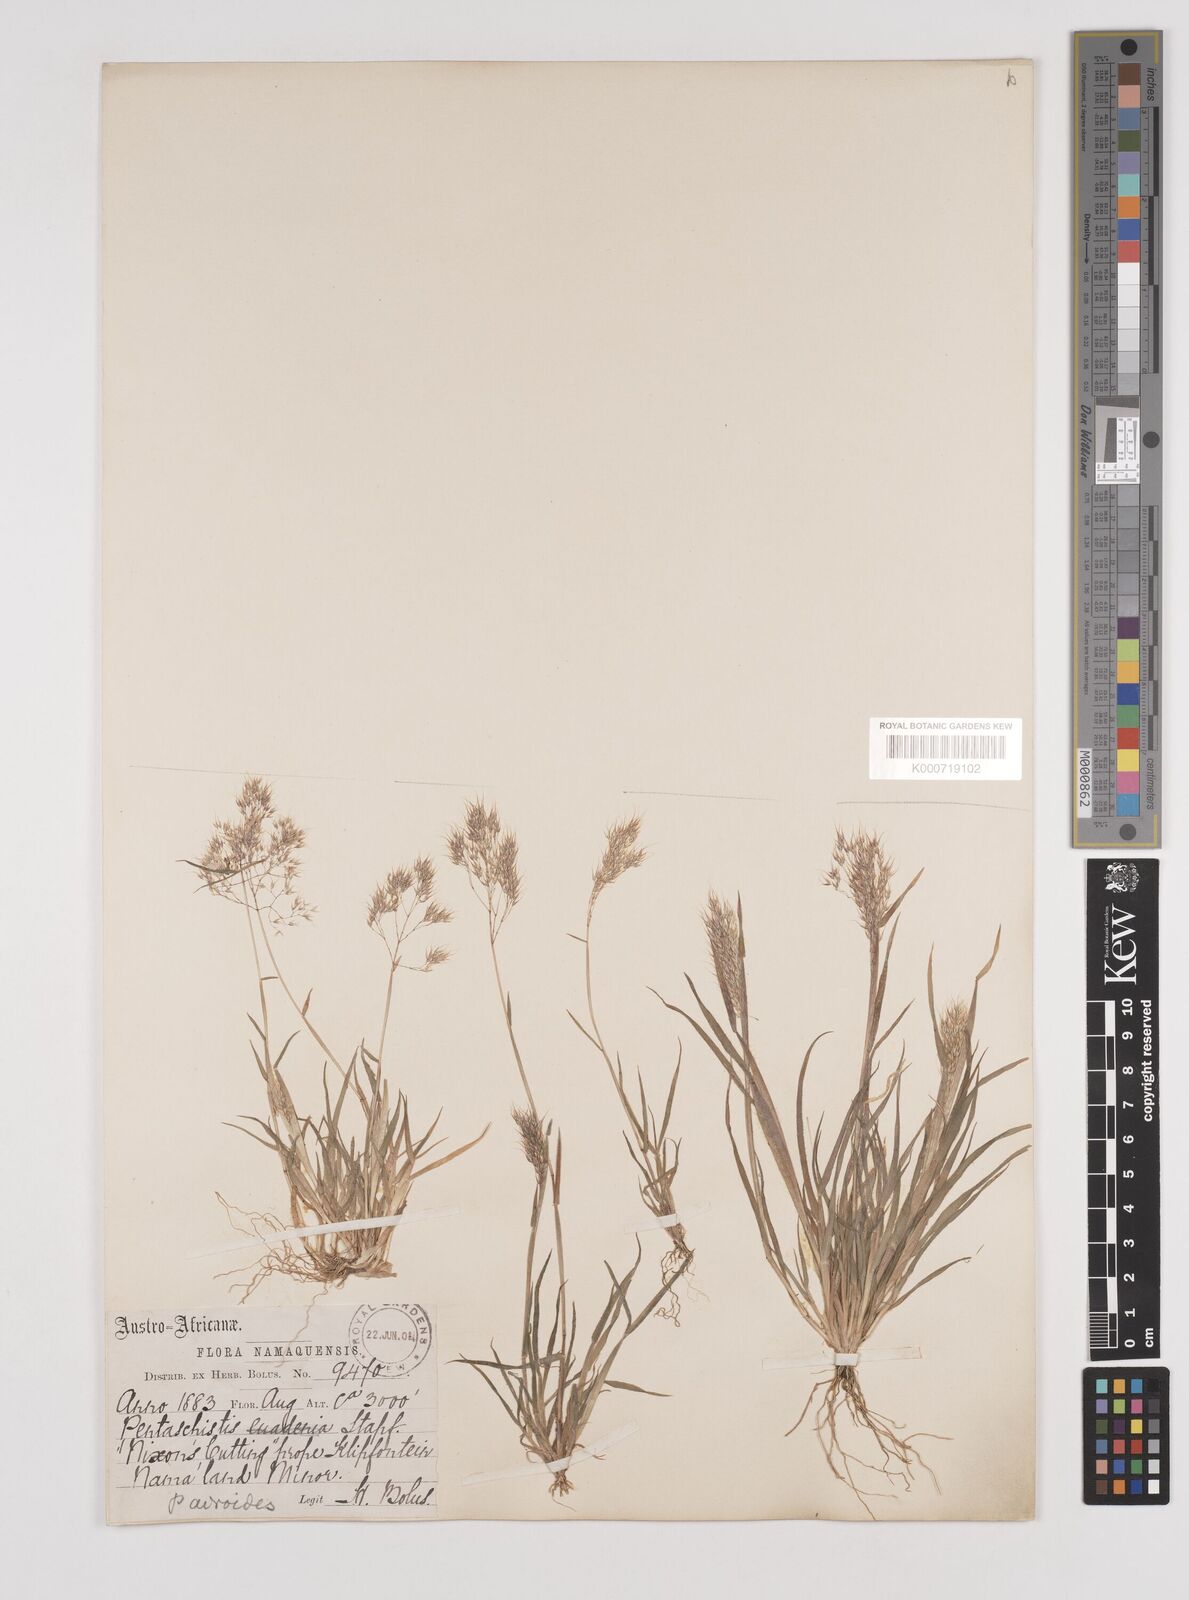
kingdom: Plantae
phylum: Tracheophyta
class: Liliopsida
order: Poales
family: Poaceae
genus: Pentameris
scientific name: Pentameris airoides
